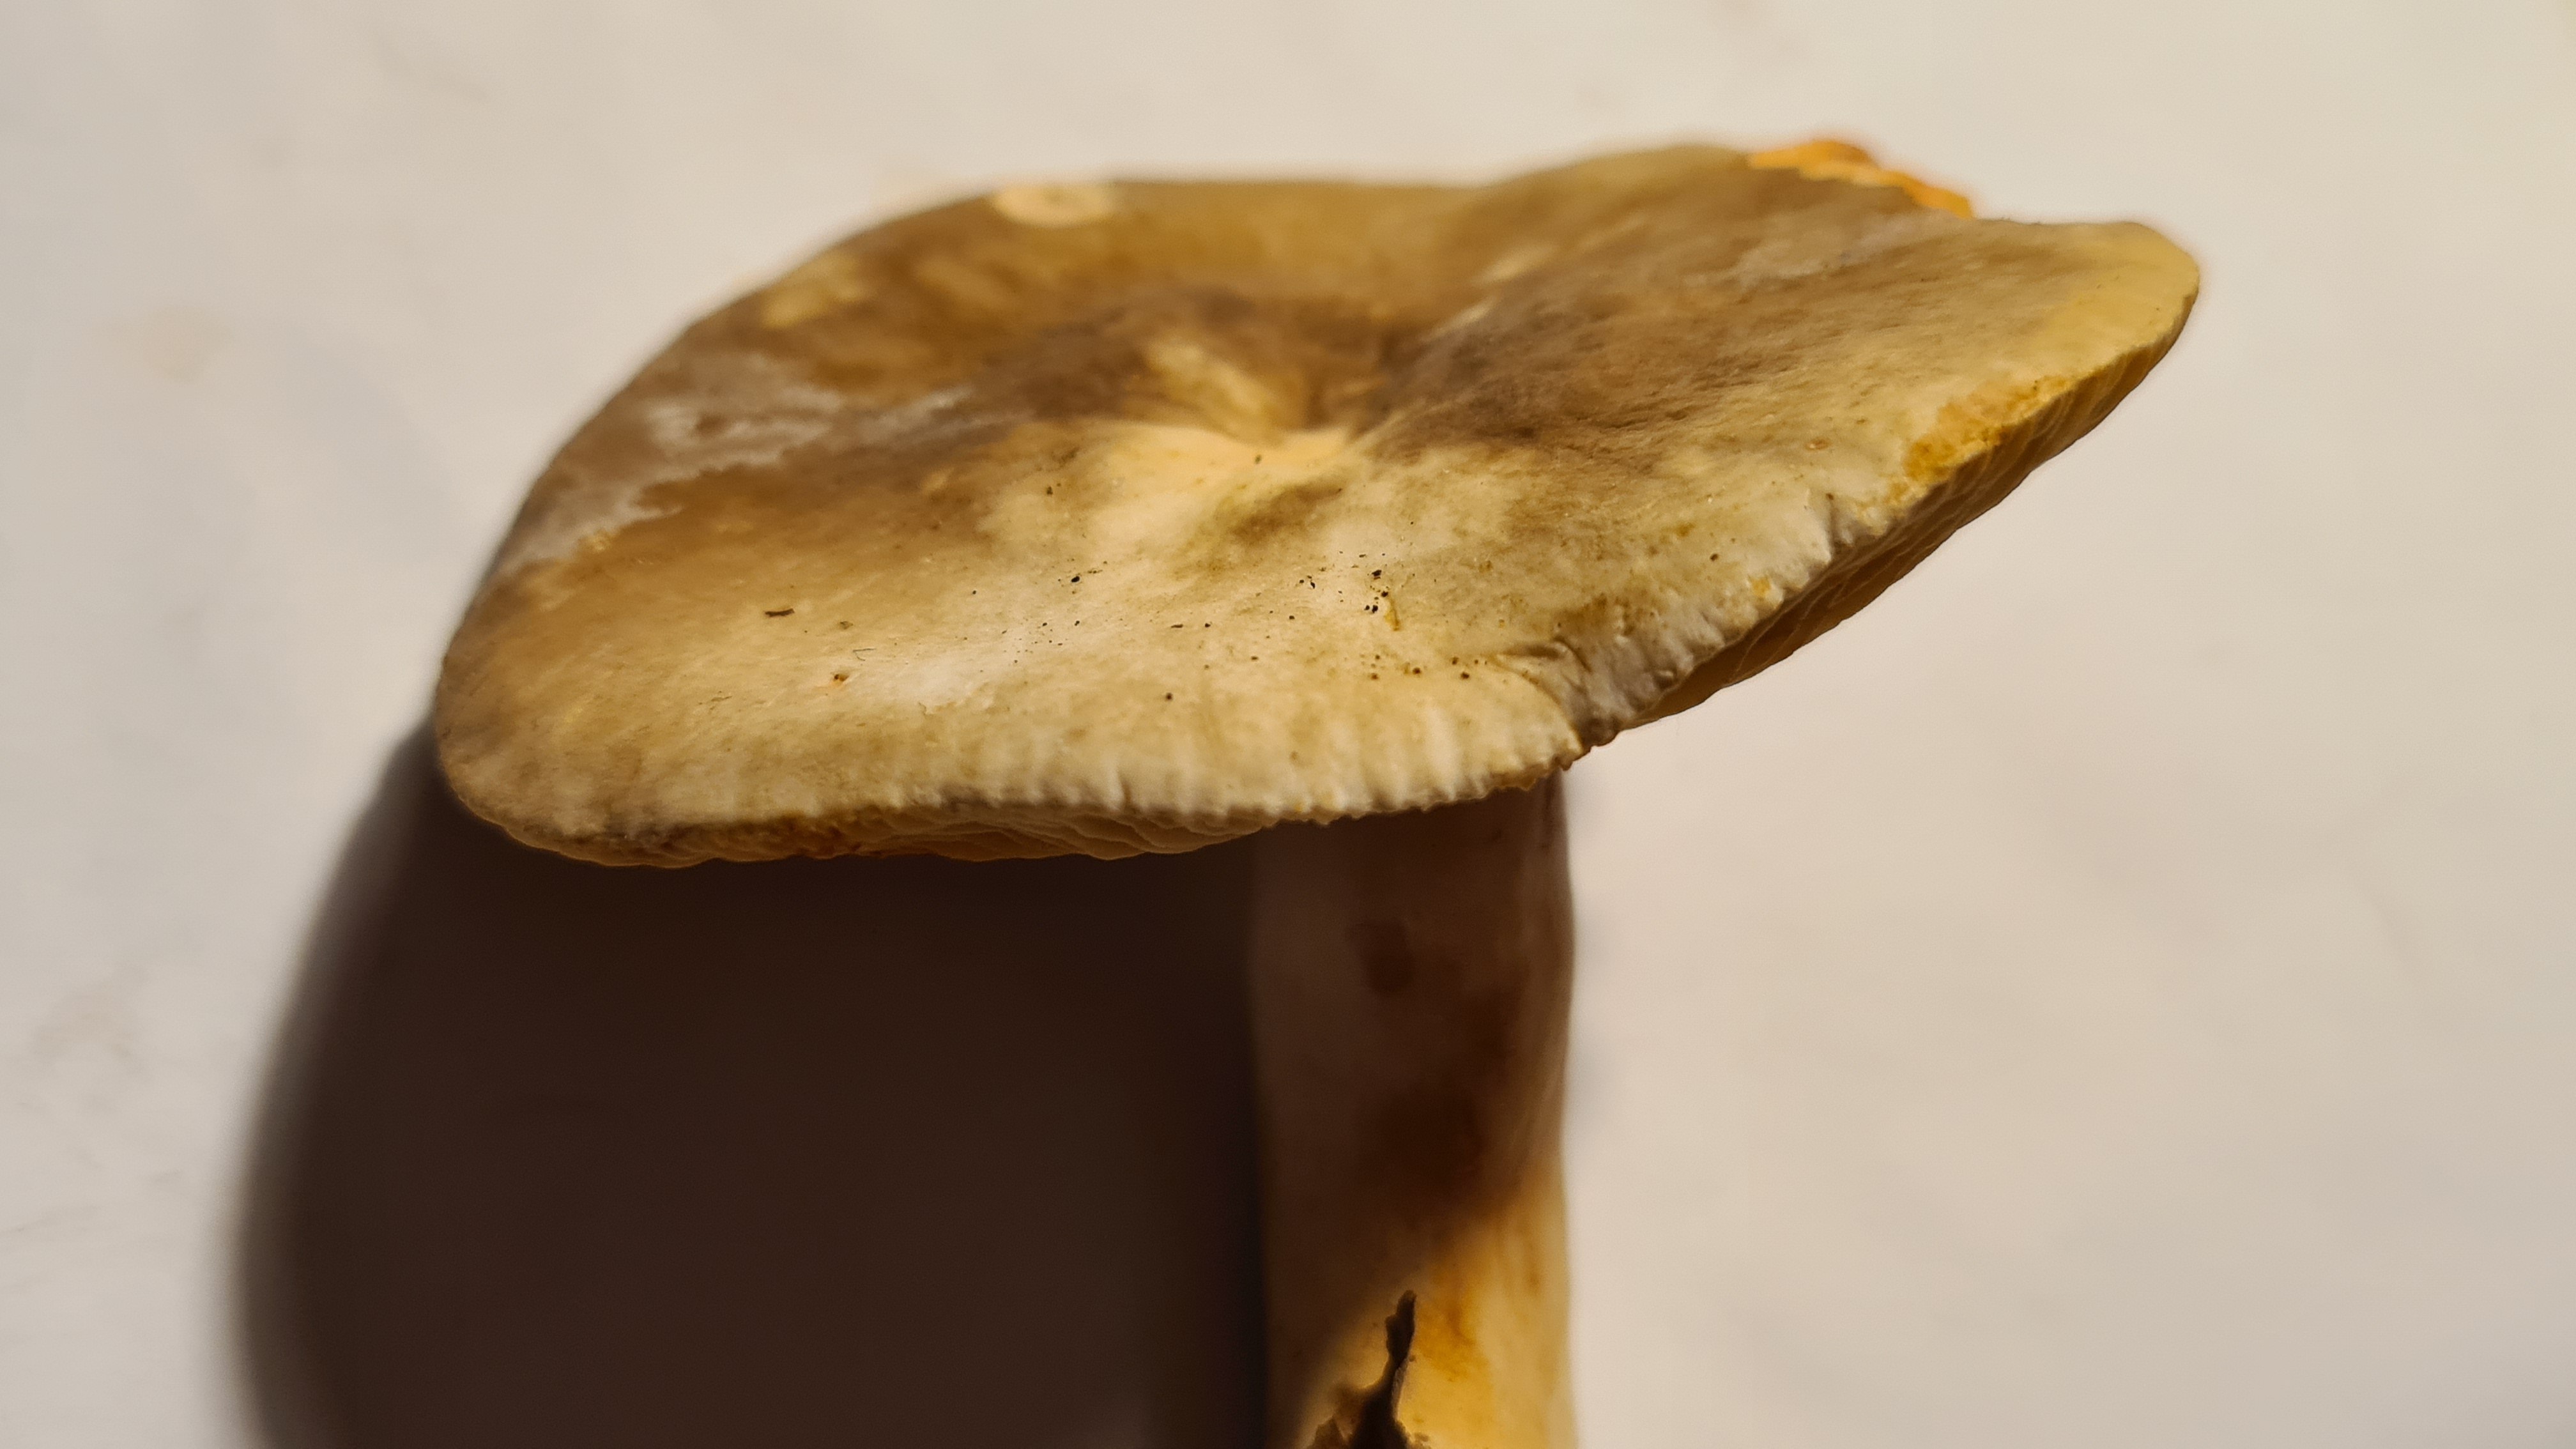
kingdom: Fungi
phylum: Basidiomycota
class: Agaricomycetes
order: Russulales
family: Russulaceae
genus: Lactarius
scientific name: Lactarius
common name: mælkehat
